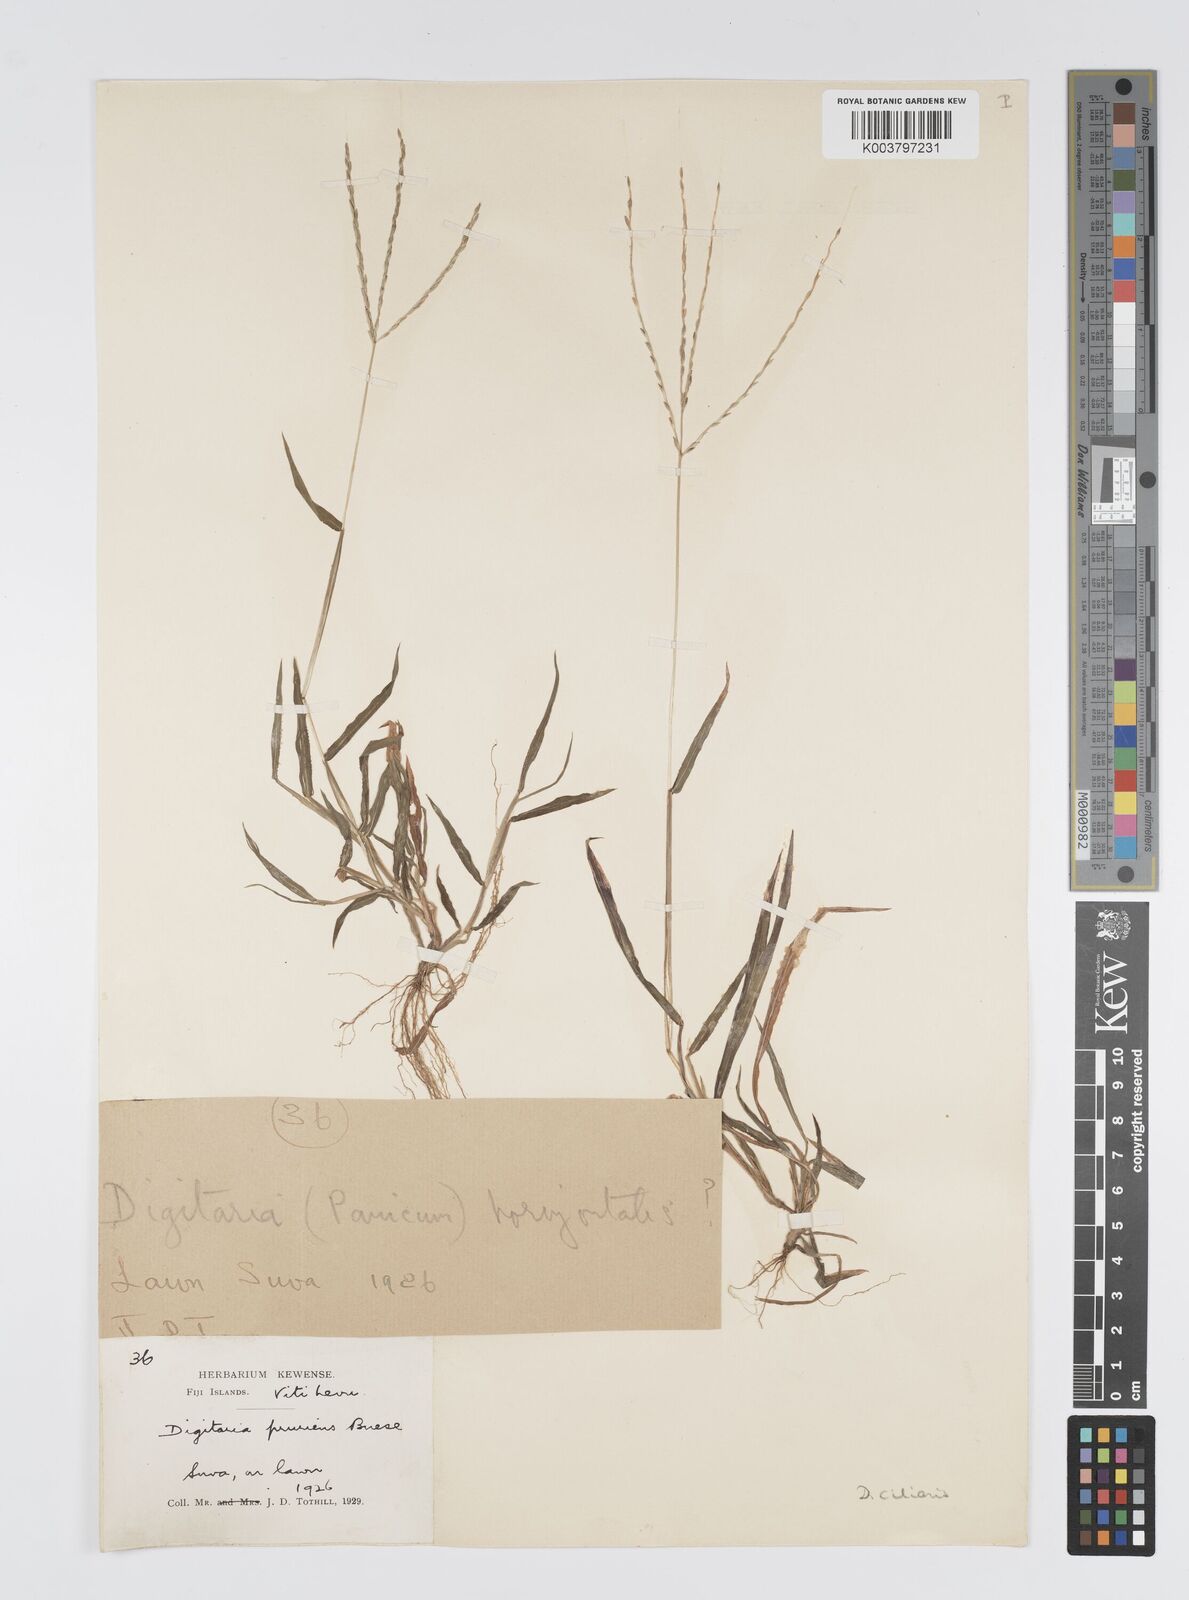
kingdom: Plantae
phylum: Tracheophyta
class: Liliopsida
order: Poales
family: Poaceae
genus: Digitaria
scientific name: Digitaria ciliaris
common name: Tropical finger-grass
